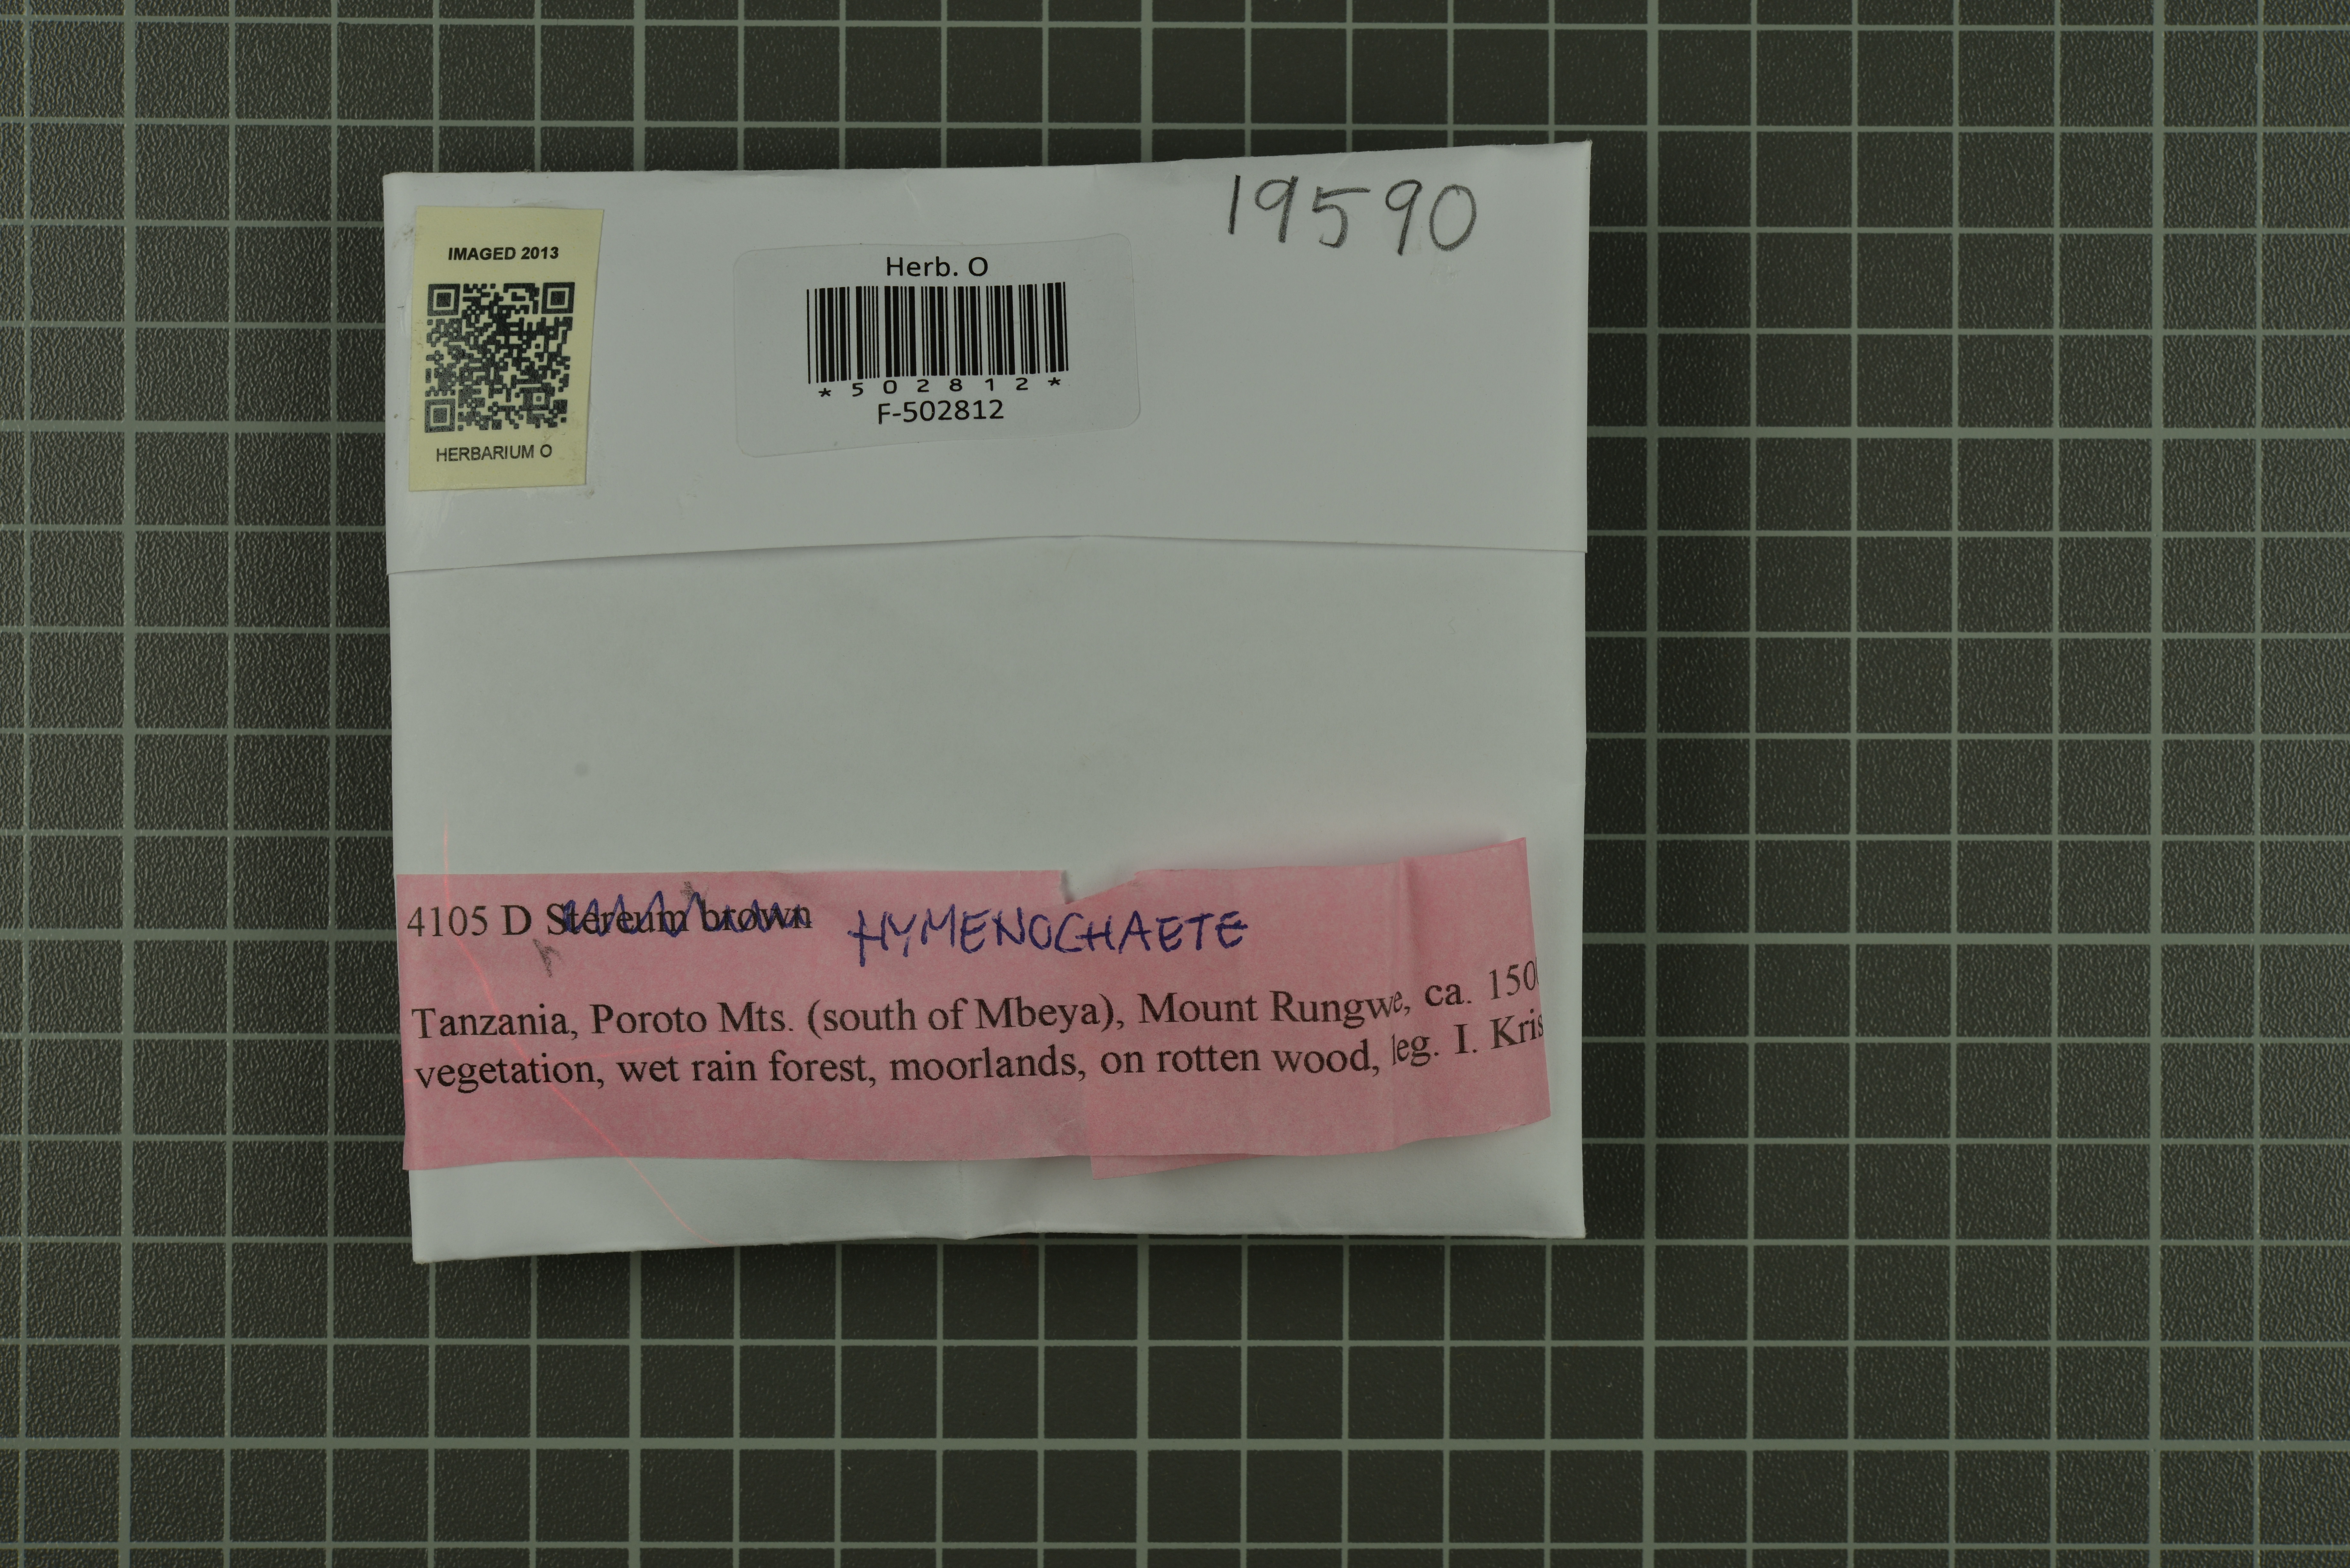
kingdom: Fungi
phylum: Basidiomycota
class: Agaricomycetes
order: Hymenochaetales
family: Hymenochaetaceae
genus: Hymenochaete
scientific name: Hymenochaete
